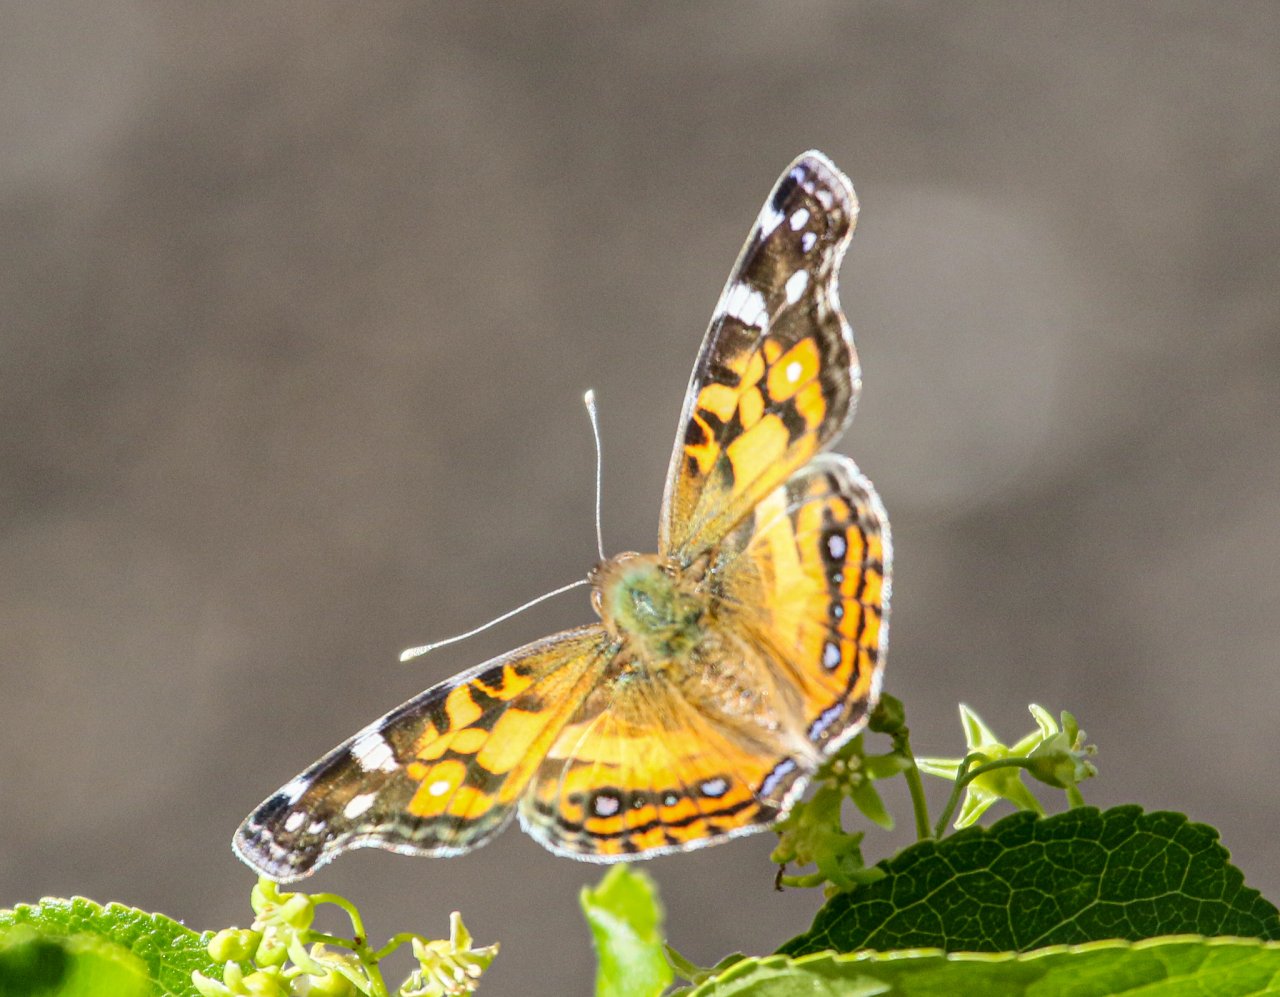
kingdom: Animalia
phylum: Arthropoda
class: Insecta
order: Lepidoptera
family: Nymphalidae
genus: Vanessa
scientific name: Vanessa virginiensis
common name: American Lady
